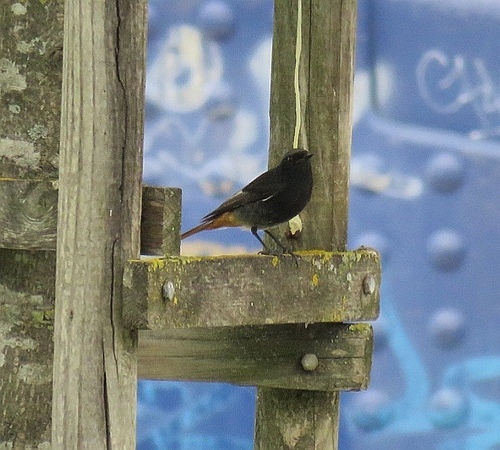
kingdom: Animalia
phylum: Chordata
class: Aves
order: Passeriformes
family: Muscicapidae
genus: Phoenicurus
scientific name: Phoenicurus ochruros
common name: Black redstart
